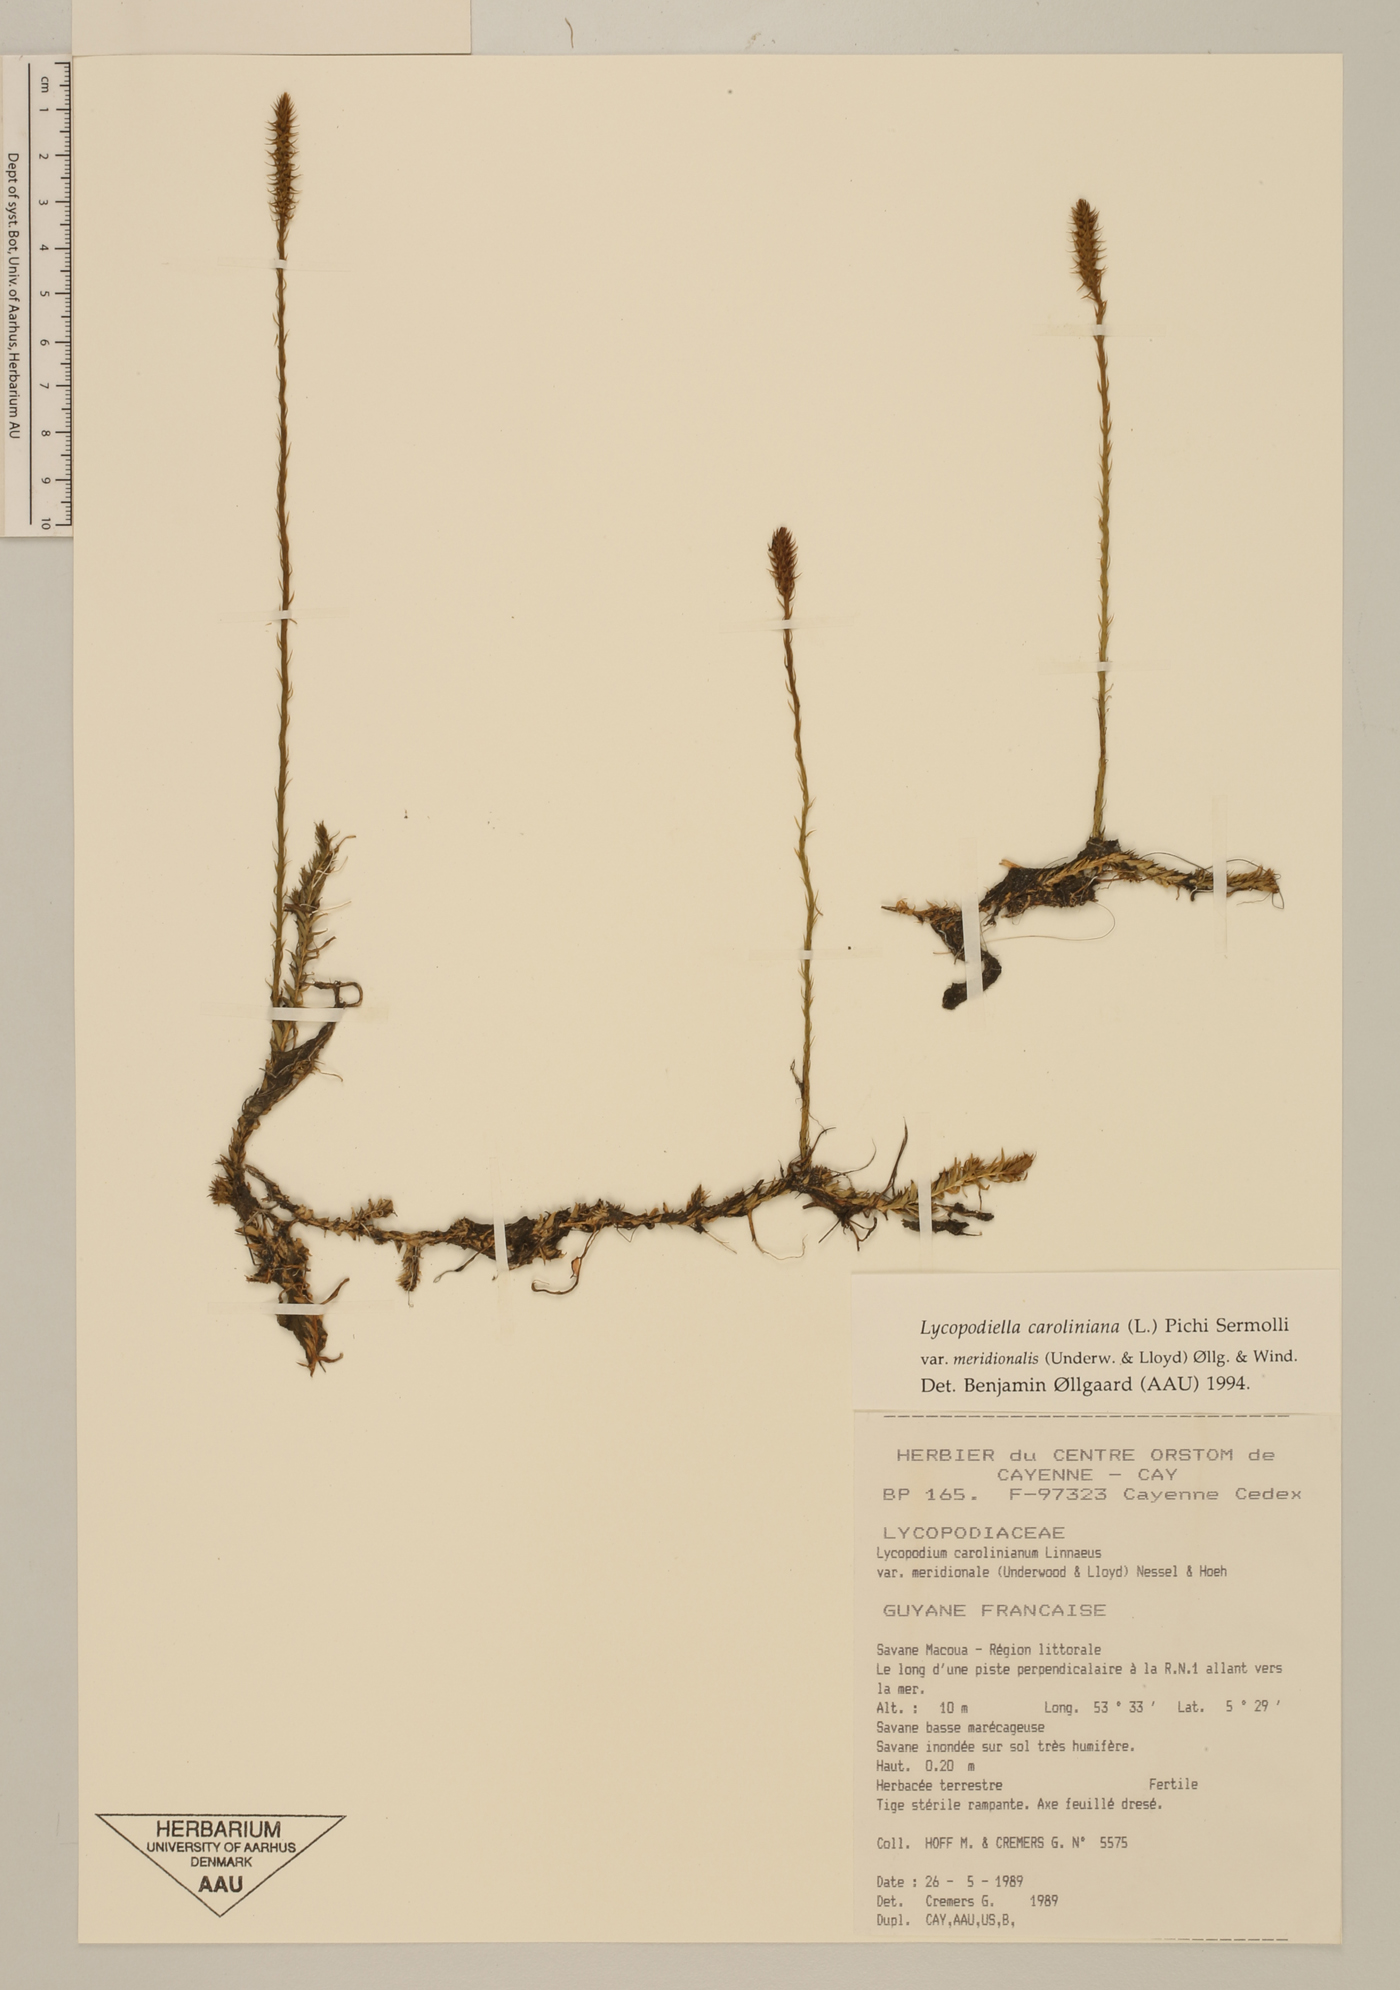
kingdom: Plantae
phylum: Tracheophyta
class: Lycopodiopsida
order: Lycopodiales
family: Lycopodiaceae
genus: Pseudolycopodiella
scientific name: Pseudolycopodiella meridionalis
